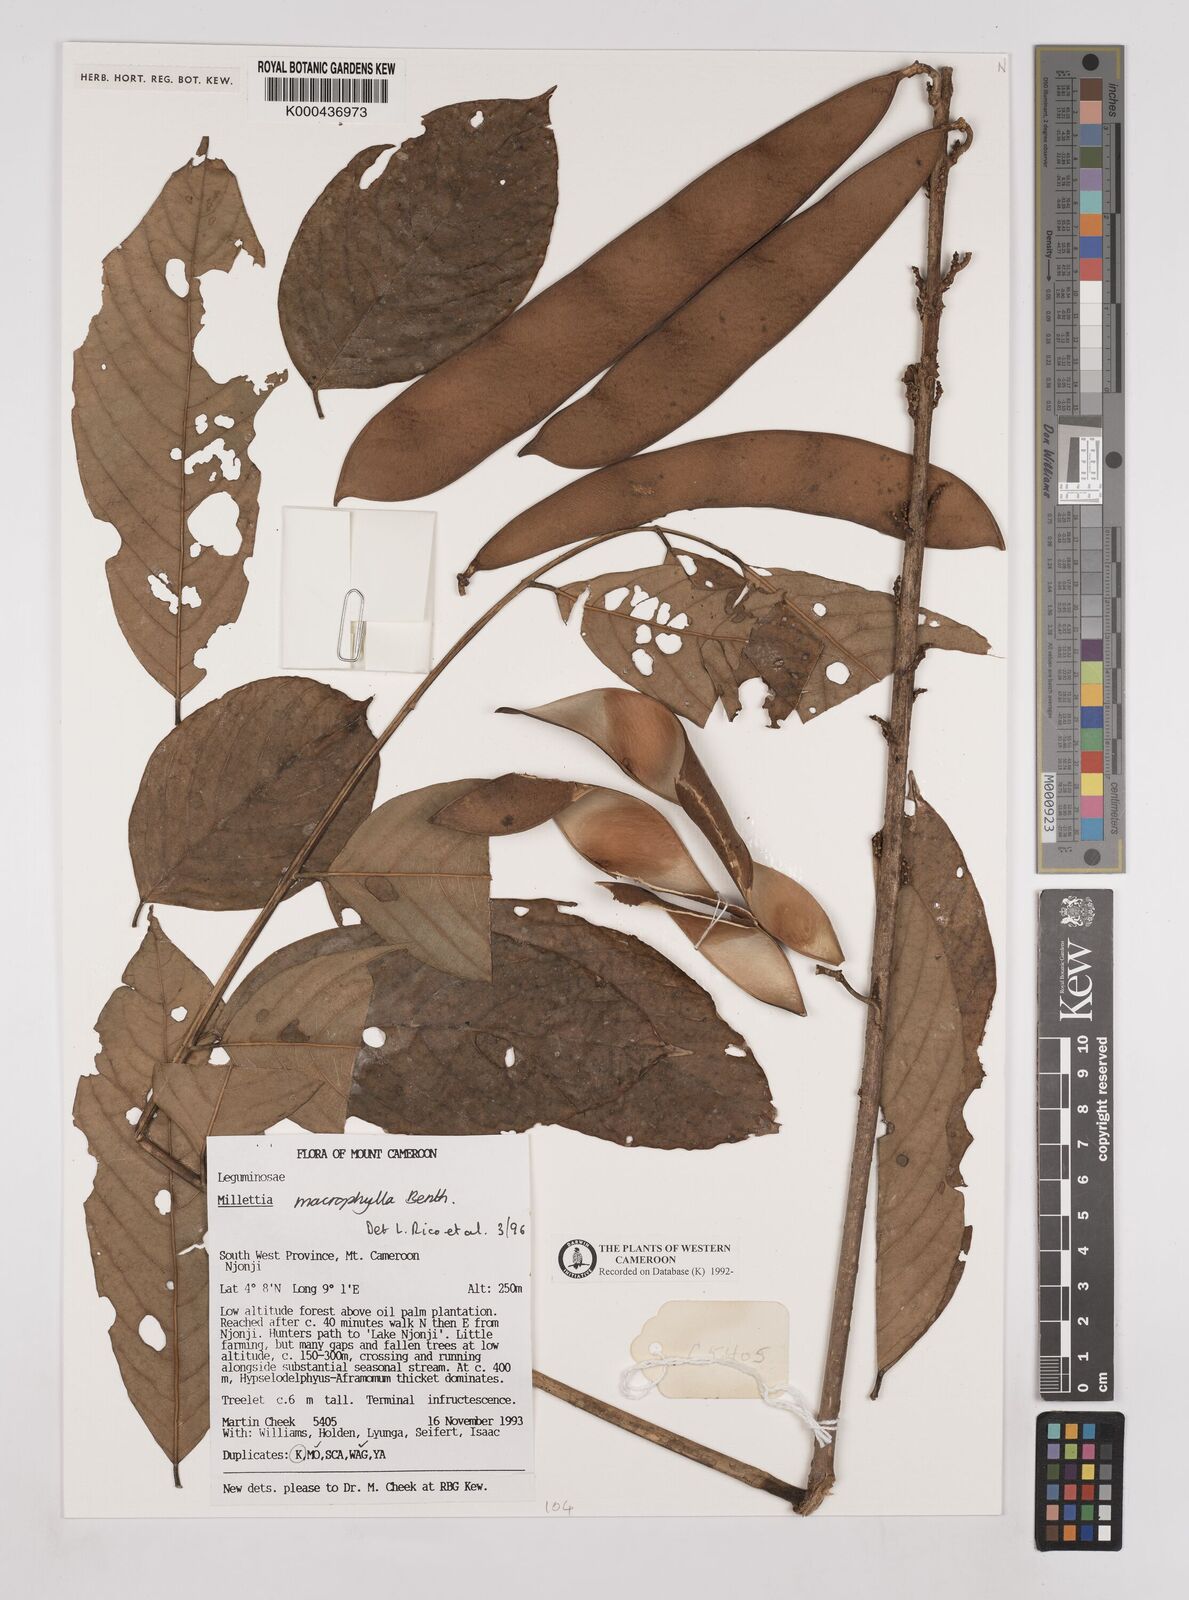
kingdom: Plantae
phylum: Tracheophyta
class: Magnoliopsida
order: Fabales
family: Fabaceae
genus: Millettia
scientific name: Millettia macrophylla
